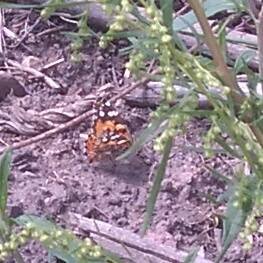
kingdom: Animalia
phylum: Arthropoda
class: Insecta
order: Lepidoptera
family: Nymphalidae
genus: Vanessa
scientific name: Vanessa cardui
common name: Painted Lady
